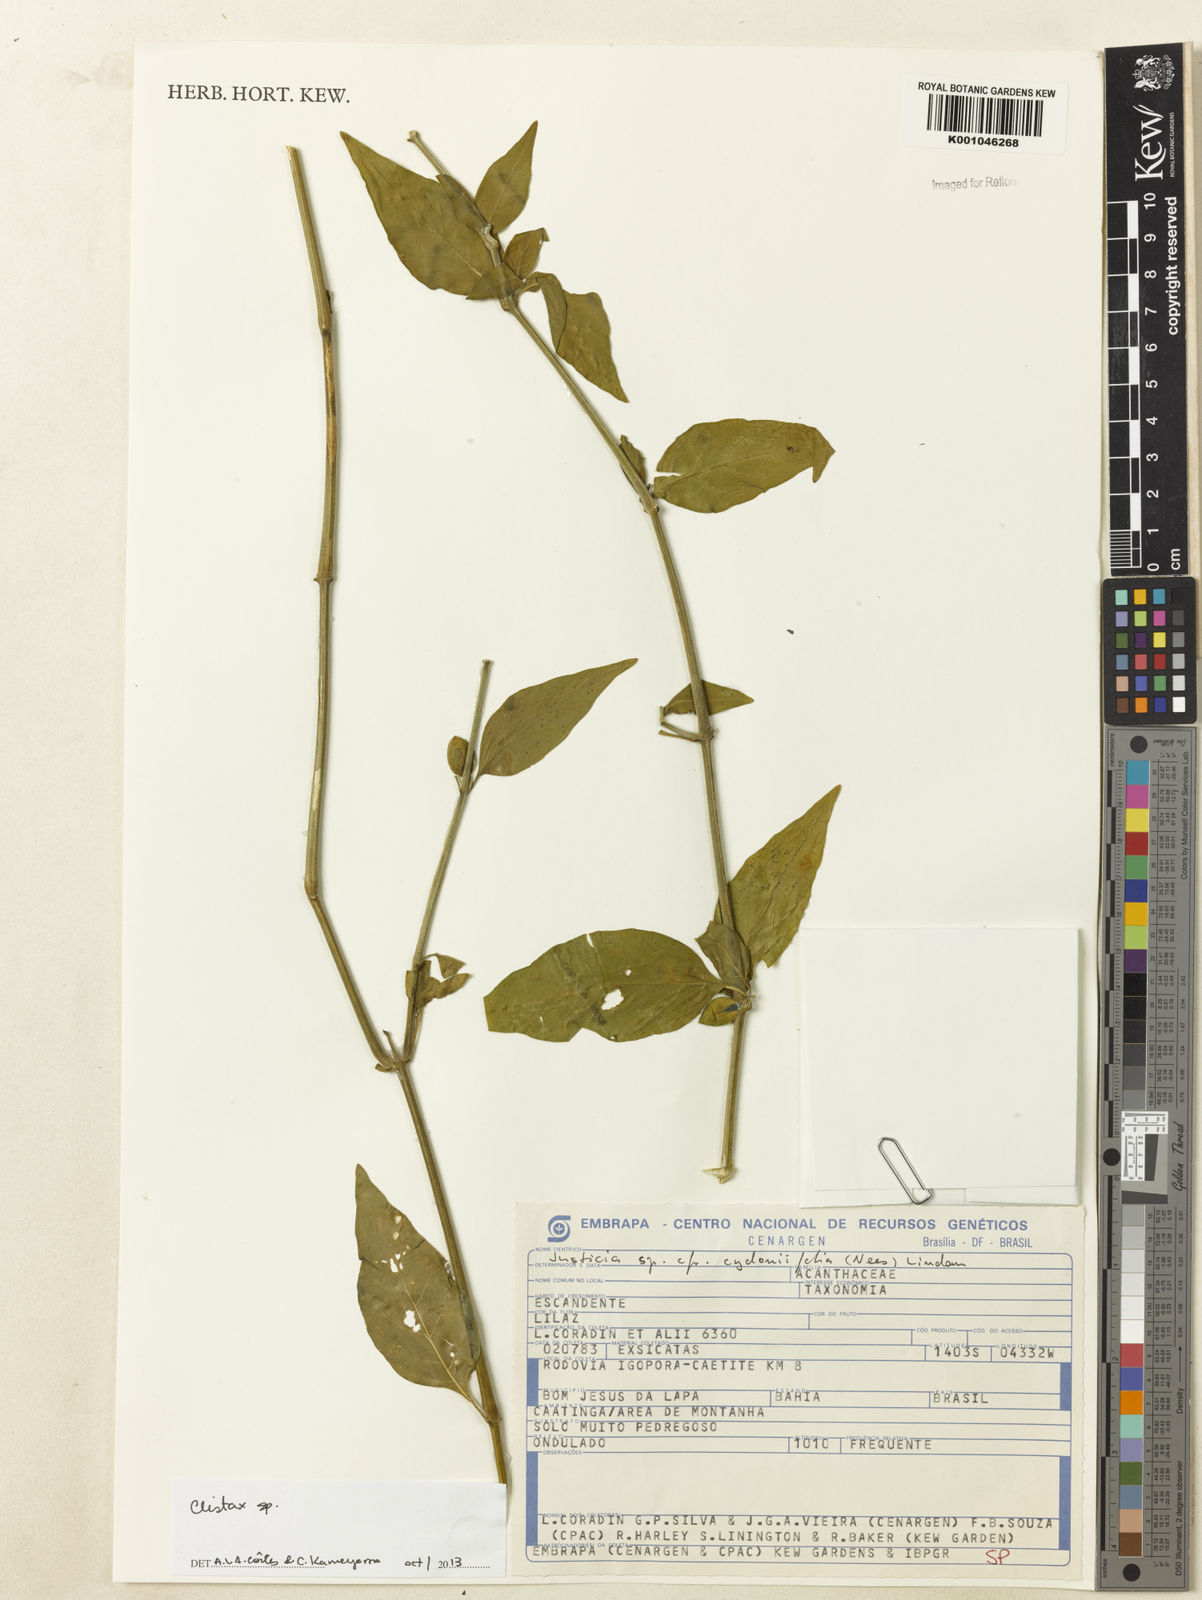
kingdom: Plantae
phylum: Tracheophyta
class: Magnoliopsida
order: Lamiales
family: Acanthaceae
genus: Clistax
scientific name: Clistax brasiliensis
